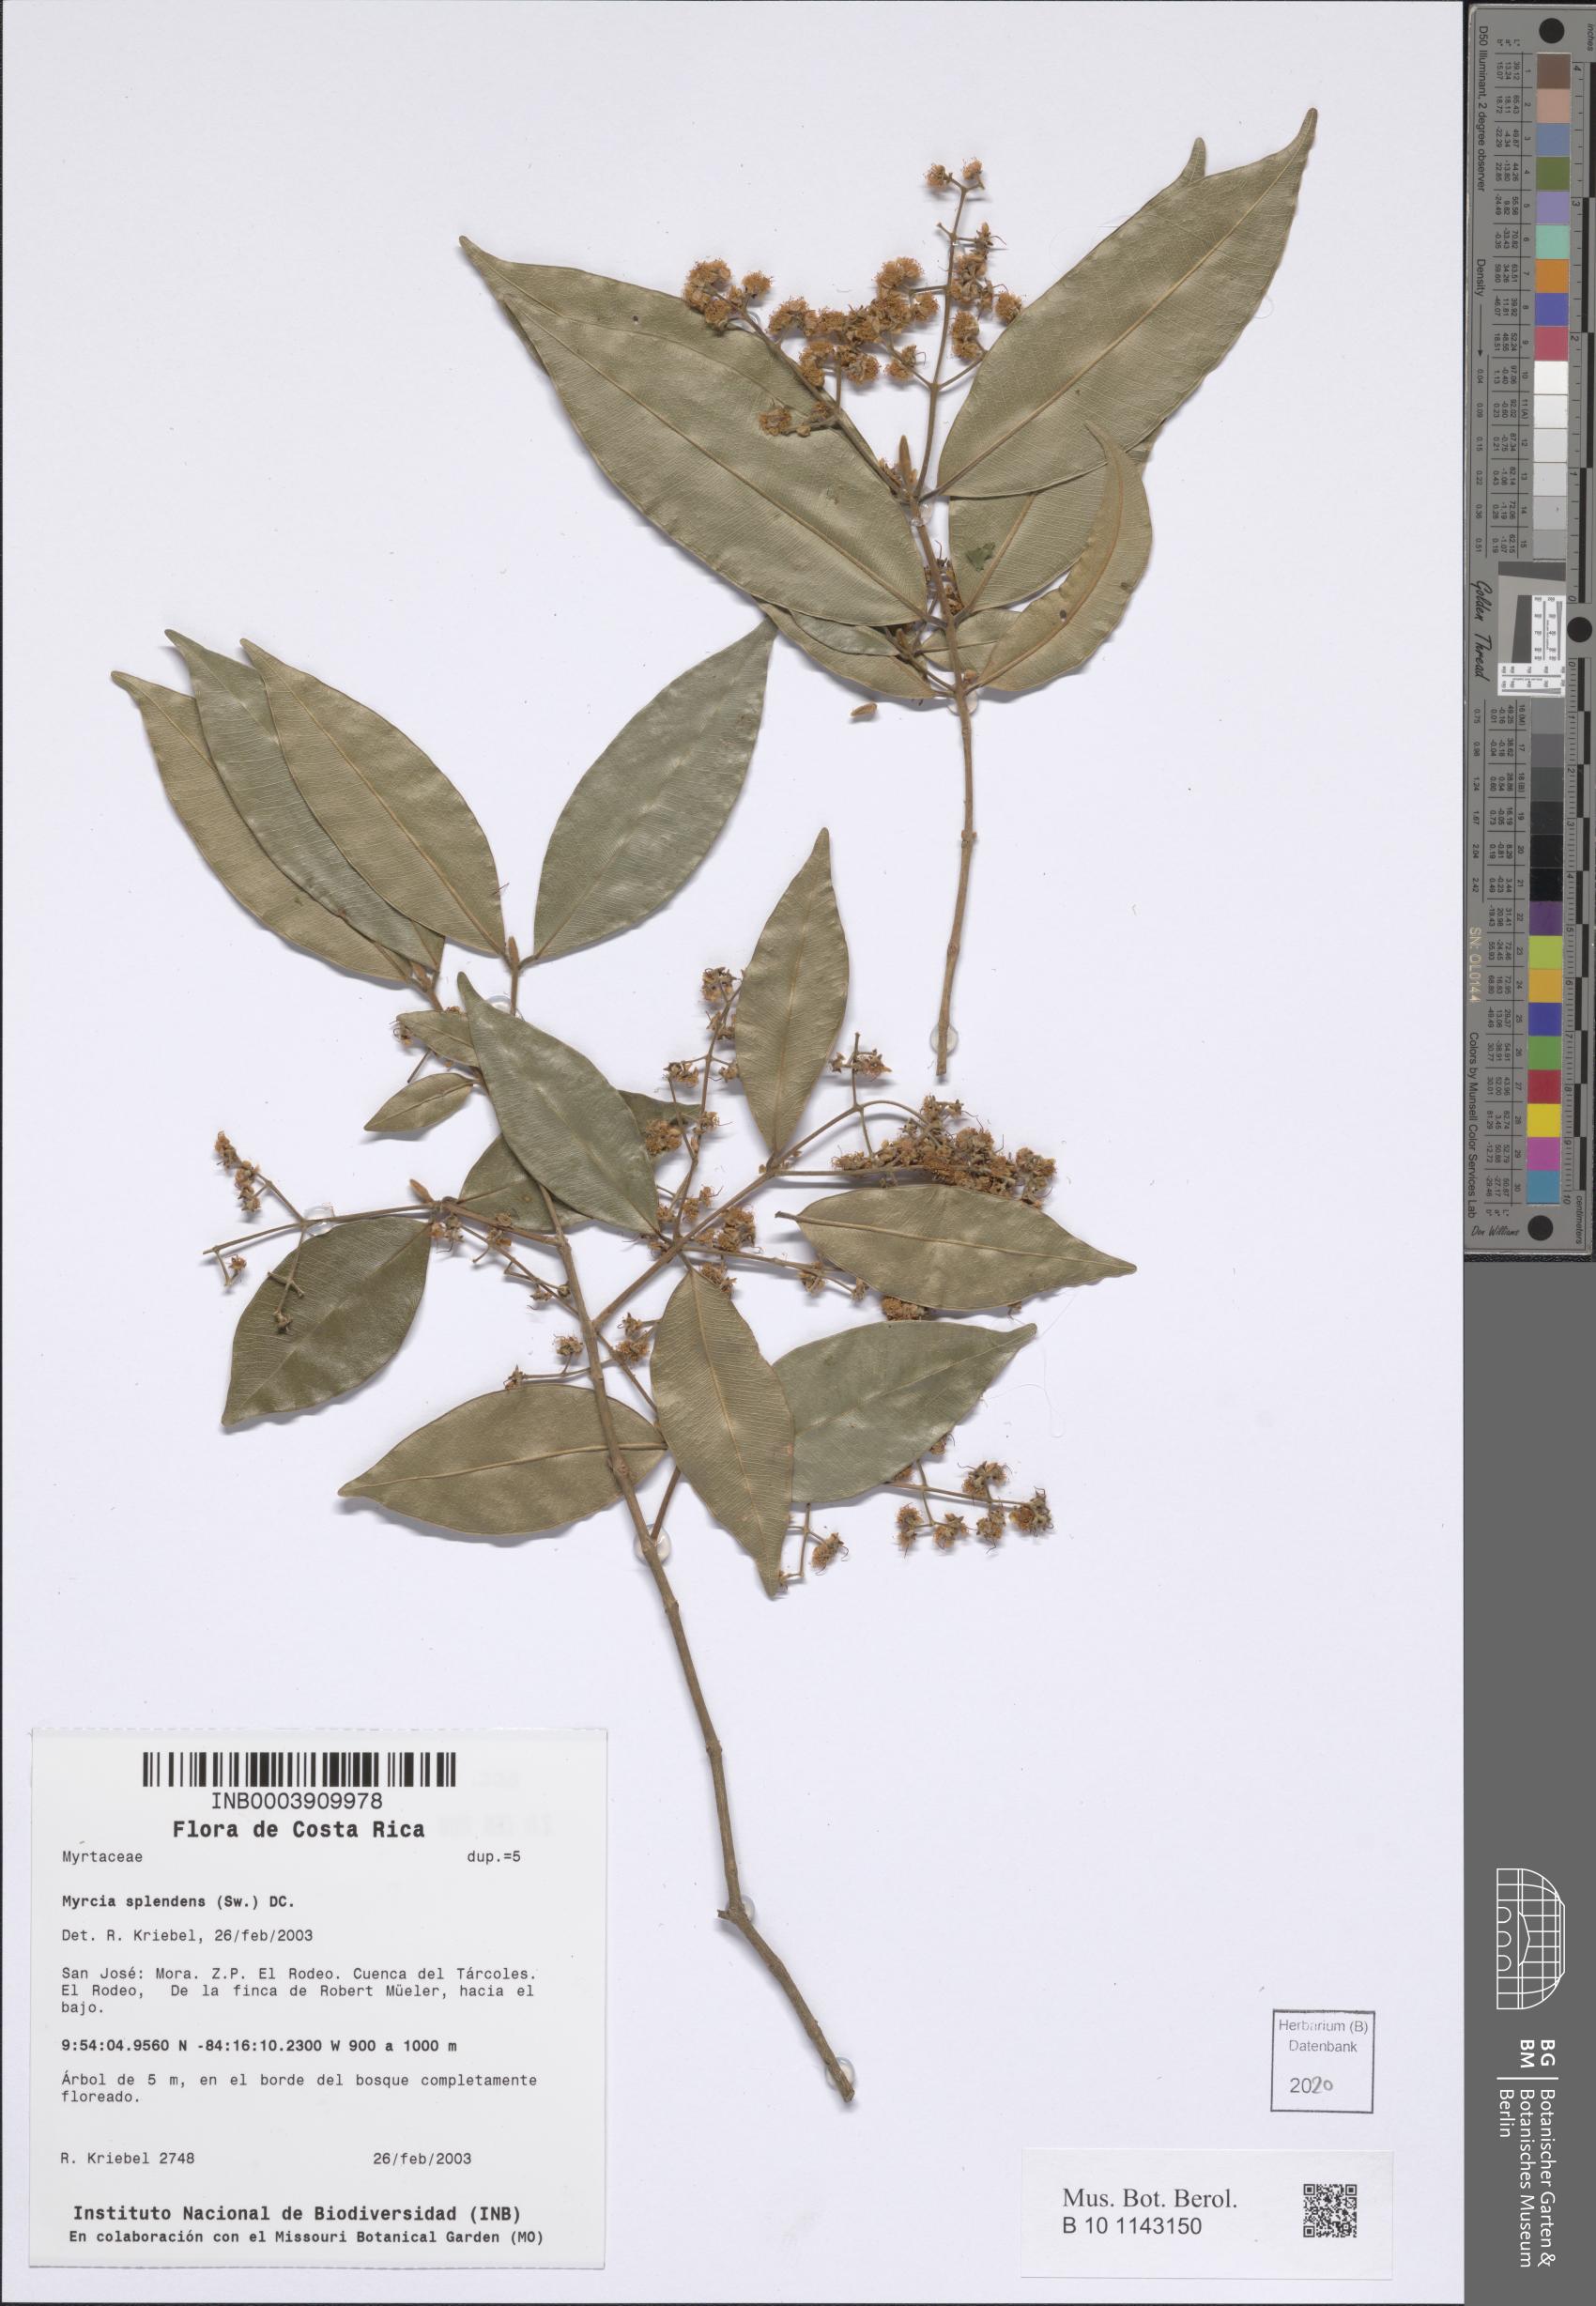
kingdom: Plantae
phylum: Tracheophyta
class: Magnoliopsida
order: Myrtales
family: Myrtaceae
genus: Myrcia
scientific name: Myrcia splendens
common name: Surinam cherry
